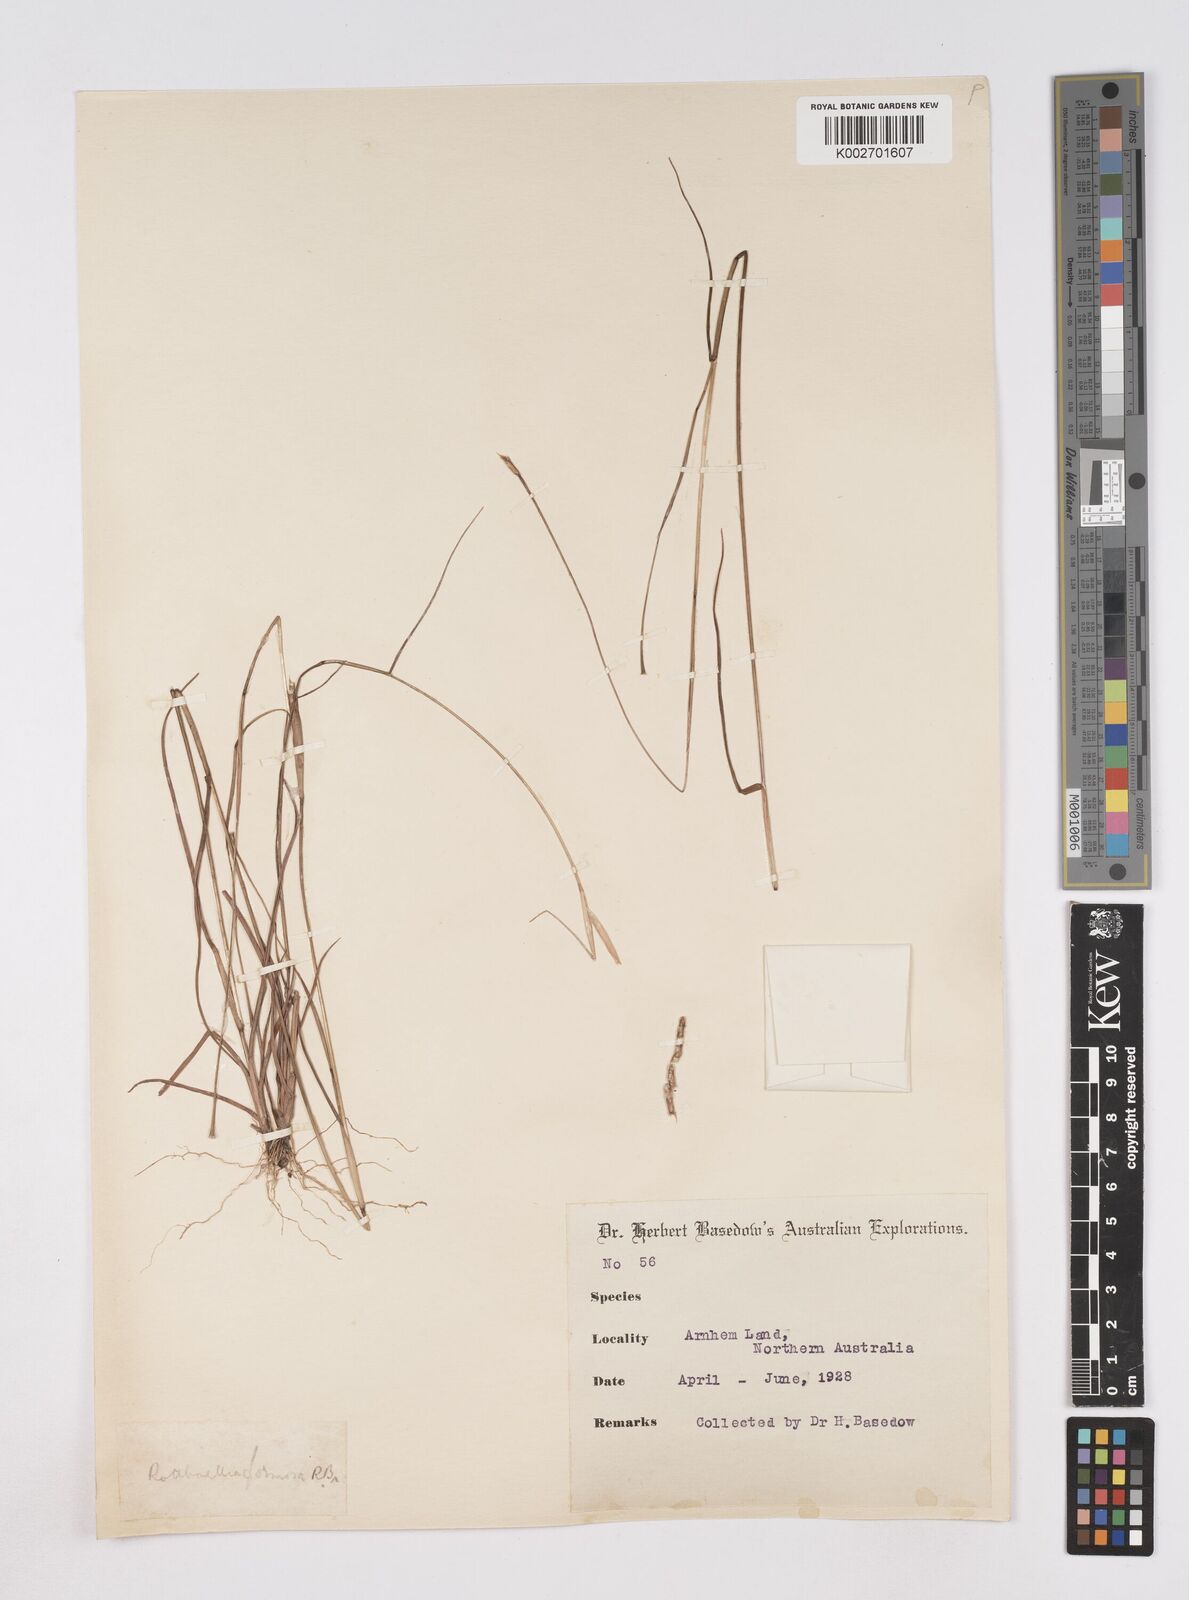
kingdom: Plantae
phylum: Tracheophyta
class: Liliopsida
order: Poales
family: Poaceae
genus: Heteropholis
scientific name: Heteropholis
